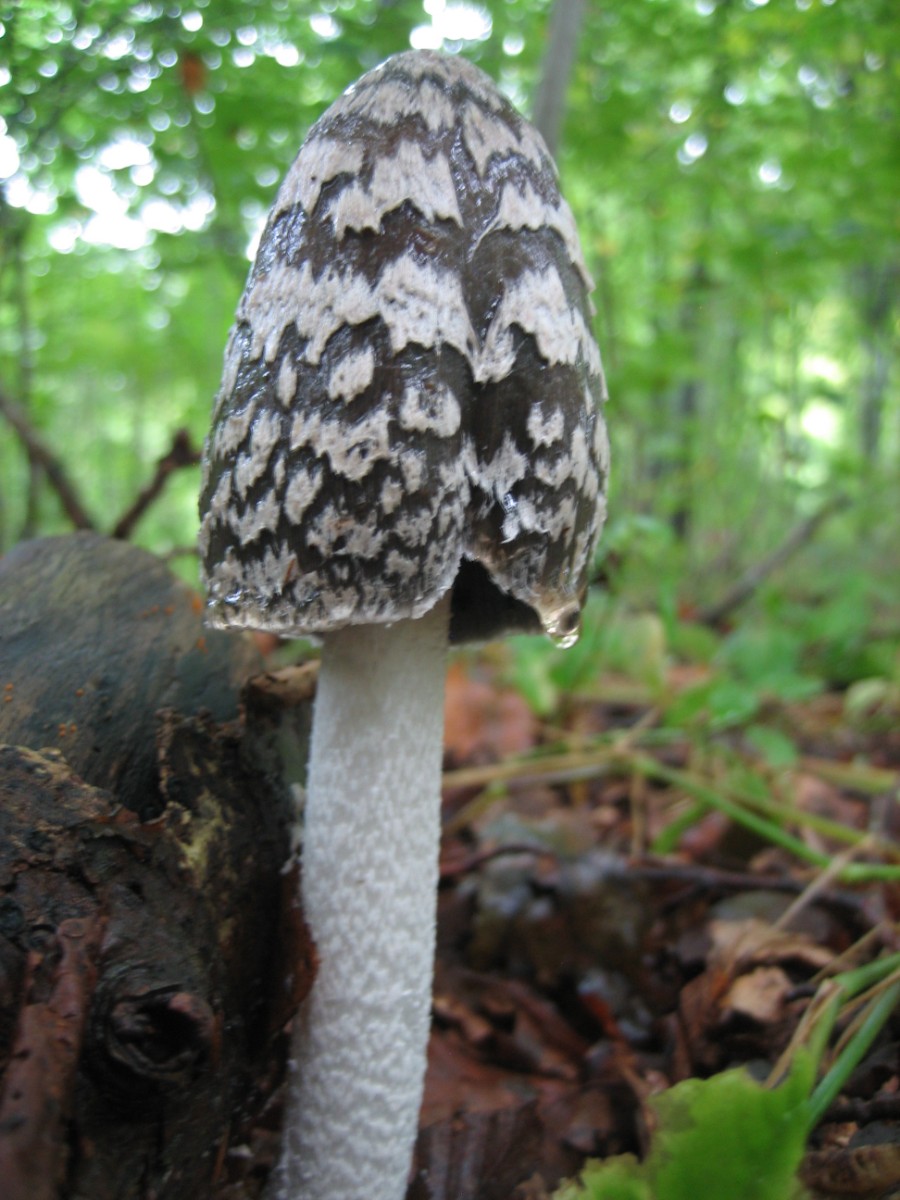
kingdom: Fungi
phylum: Basidiomycota
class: Agaricomycetes
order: Agaricales
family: Psathyrellaceae
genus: Coprinopsis
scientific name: Coprinopsis picacea
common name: skade-blækhat
